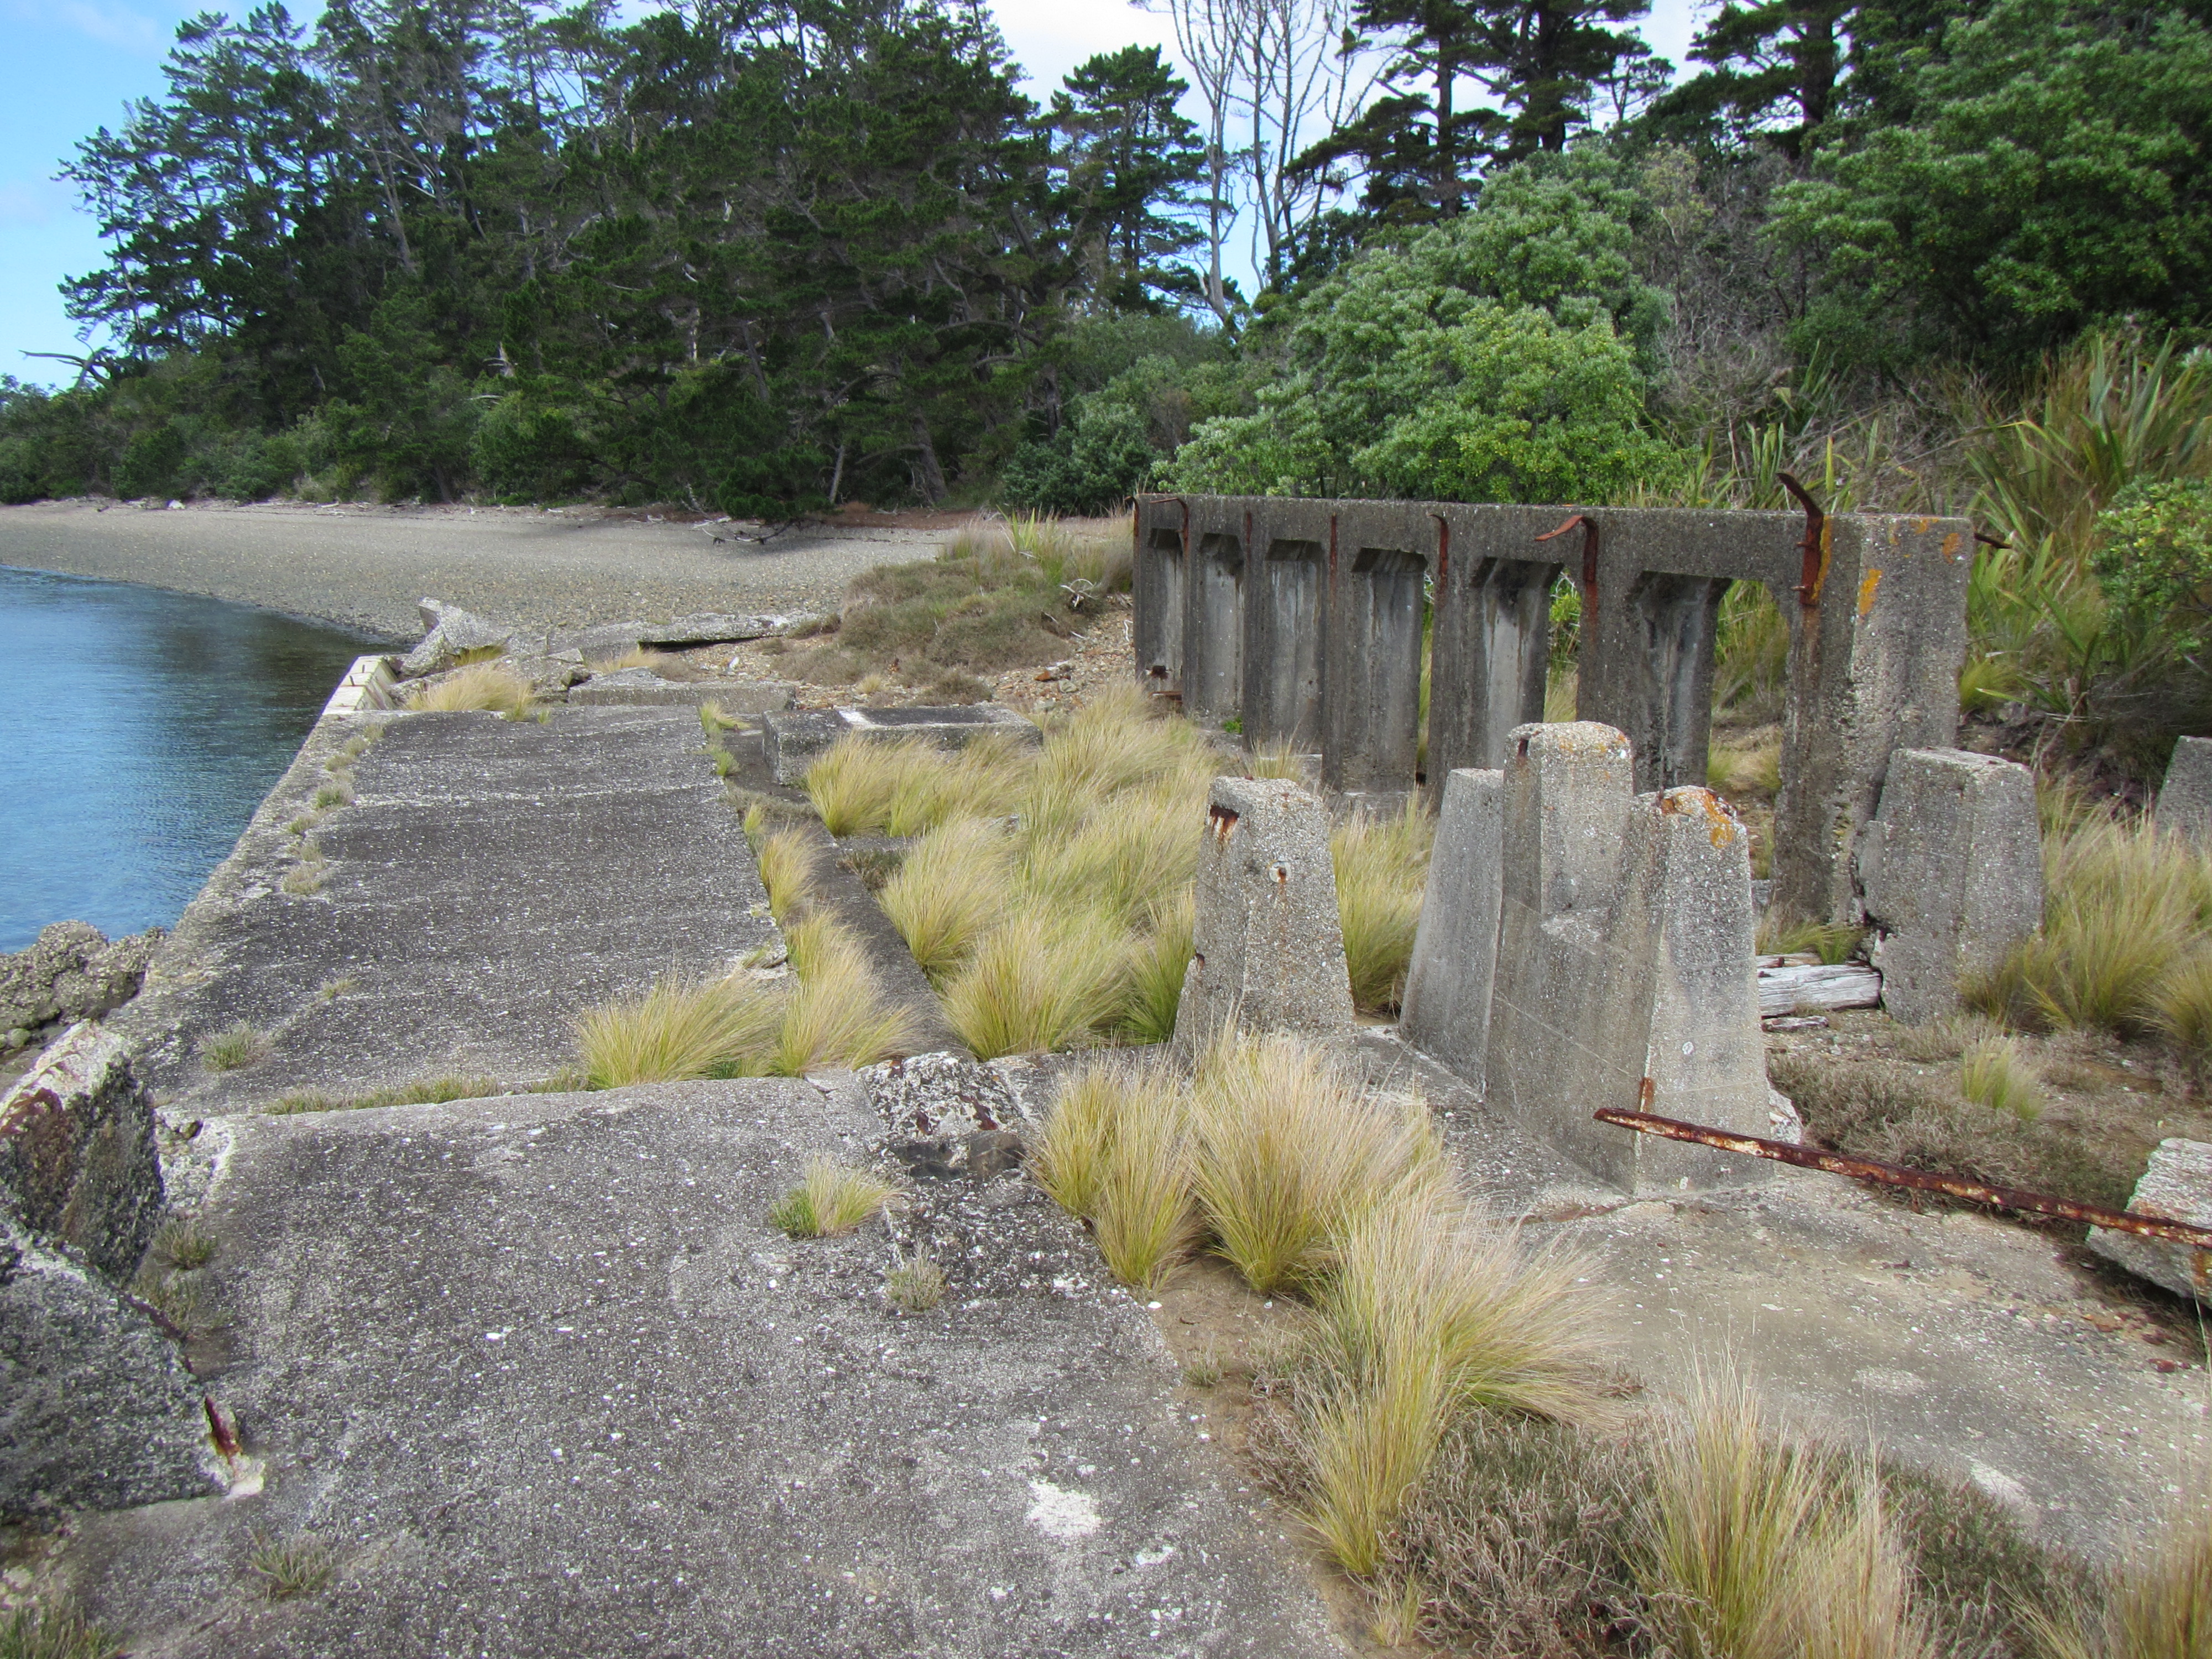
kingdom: Plantae
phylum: Tracheophyta
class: Magnoliopsida
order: Caryophyllales
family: Aizoaceae
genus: Tetragonia
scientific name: Tetragonia tetragonoides
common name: New zealand-spinach
